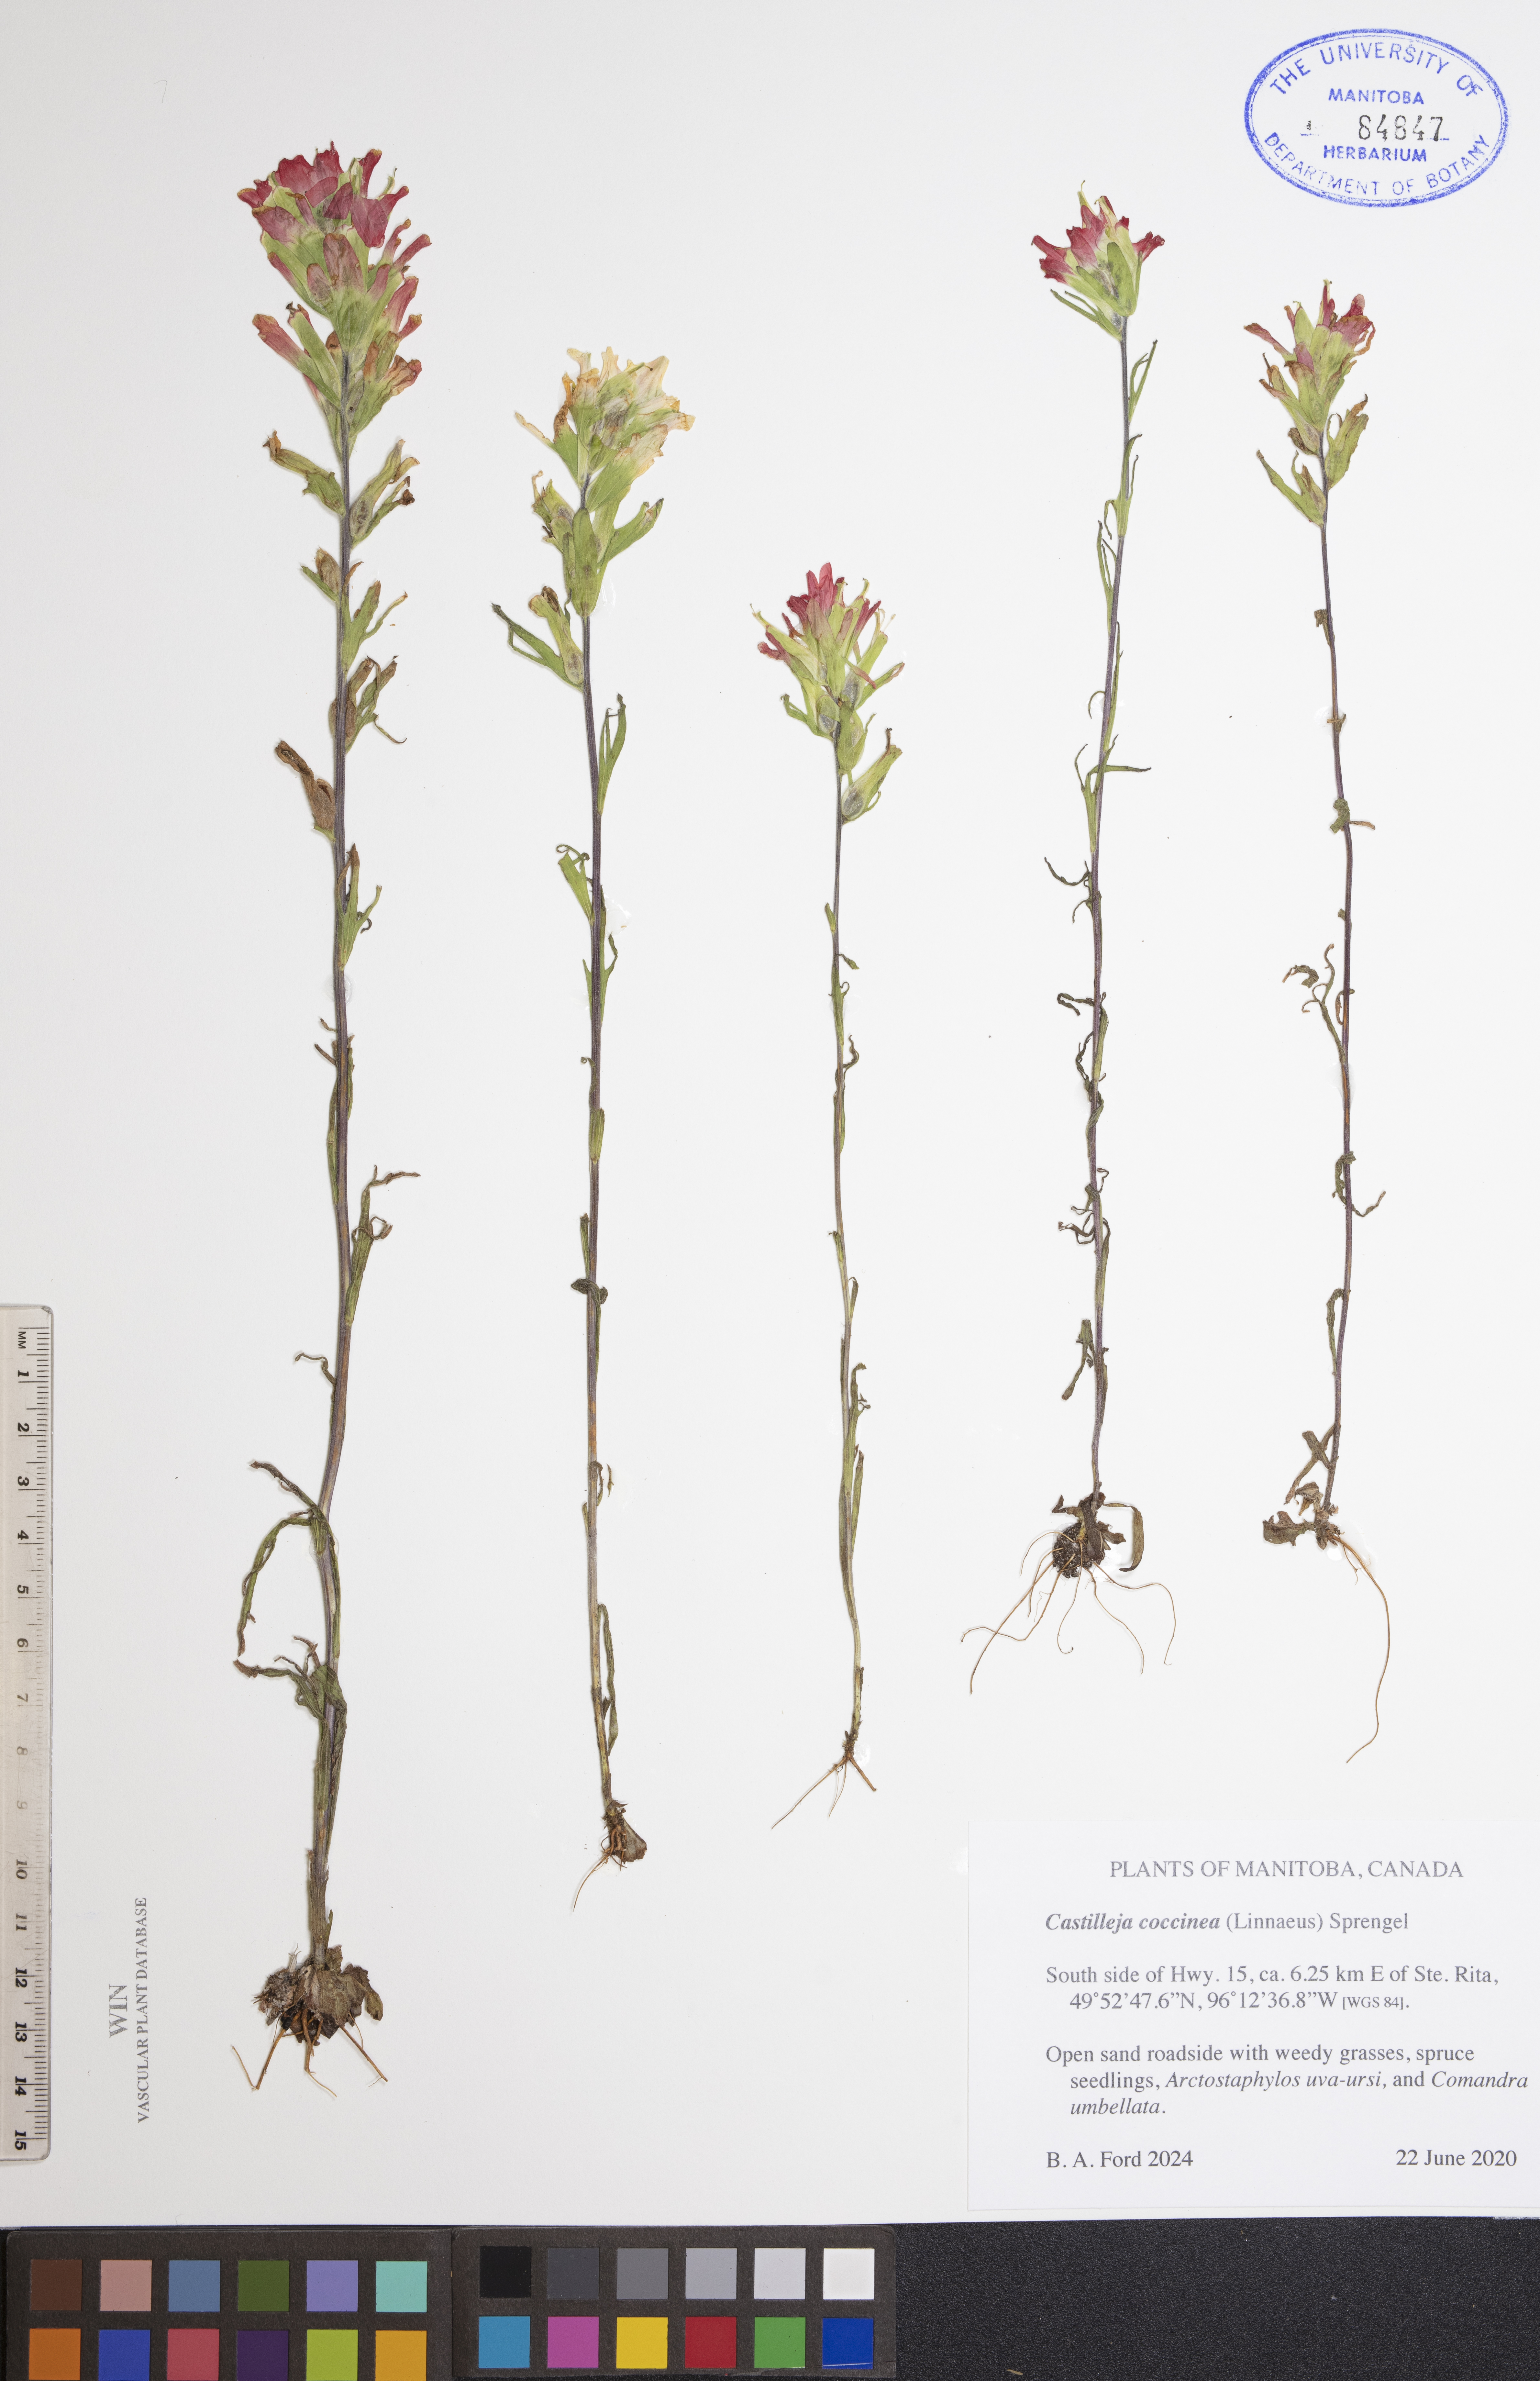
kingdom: Plantae
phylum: Tracheophyta
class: Magnoliopsida
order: Lamiales
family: Orobanchaceae
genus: Castilleja
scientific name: Castilleja coccinea
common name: Scarlet paintbrush
